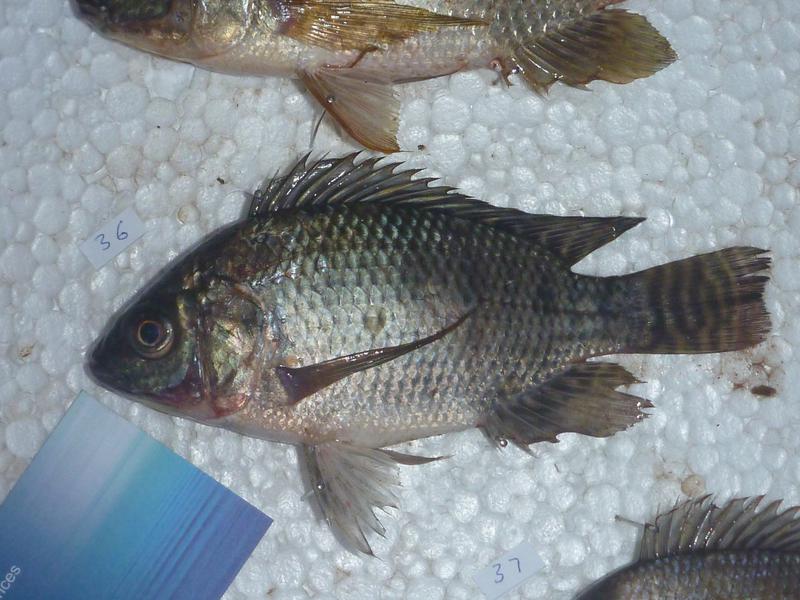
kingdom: Animalia
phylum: Chordata
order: Perciformes
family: Cichlidae
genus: Oreochromis
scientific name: Oreochromis niloticus
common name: Nile tilapia
